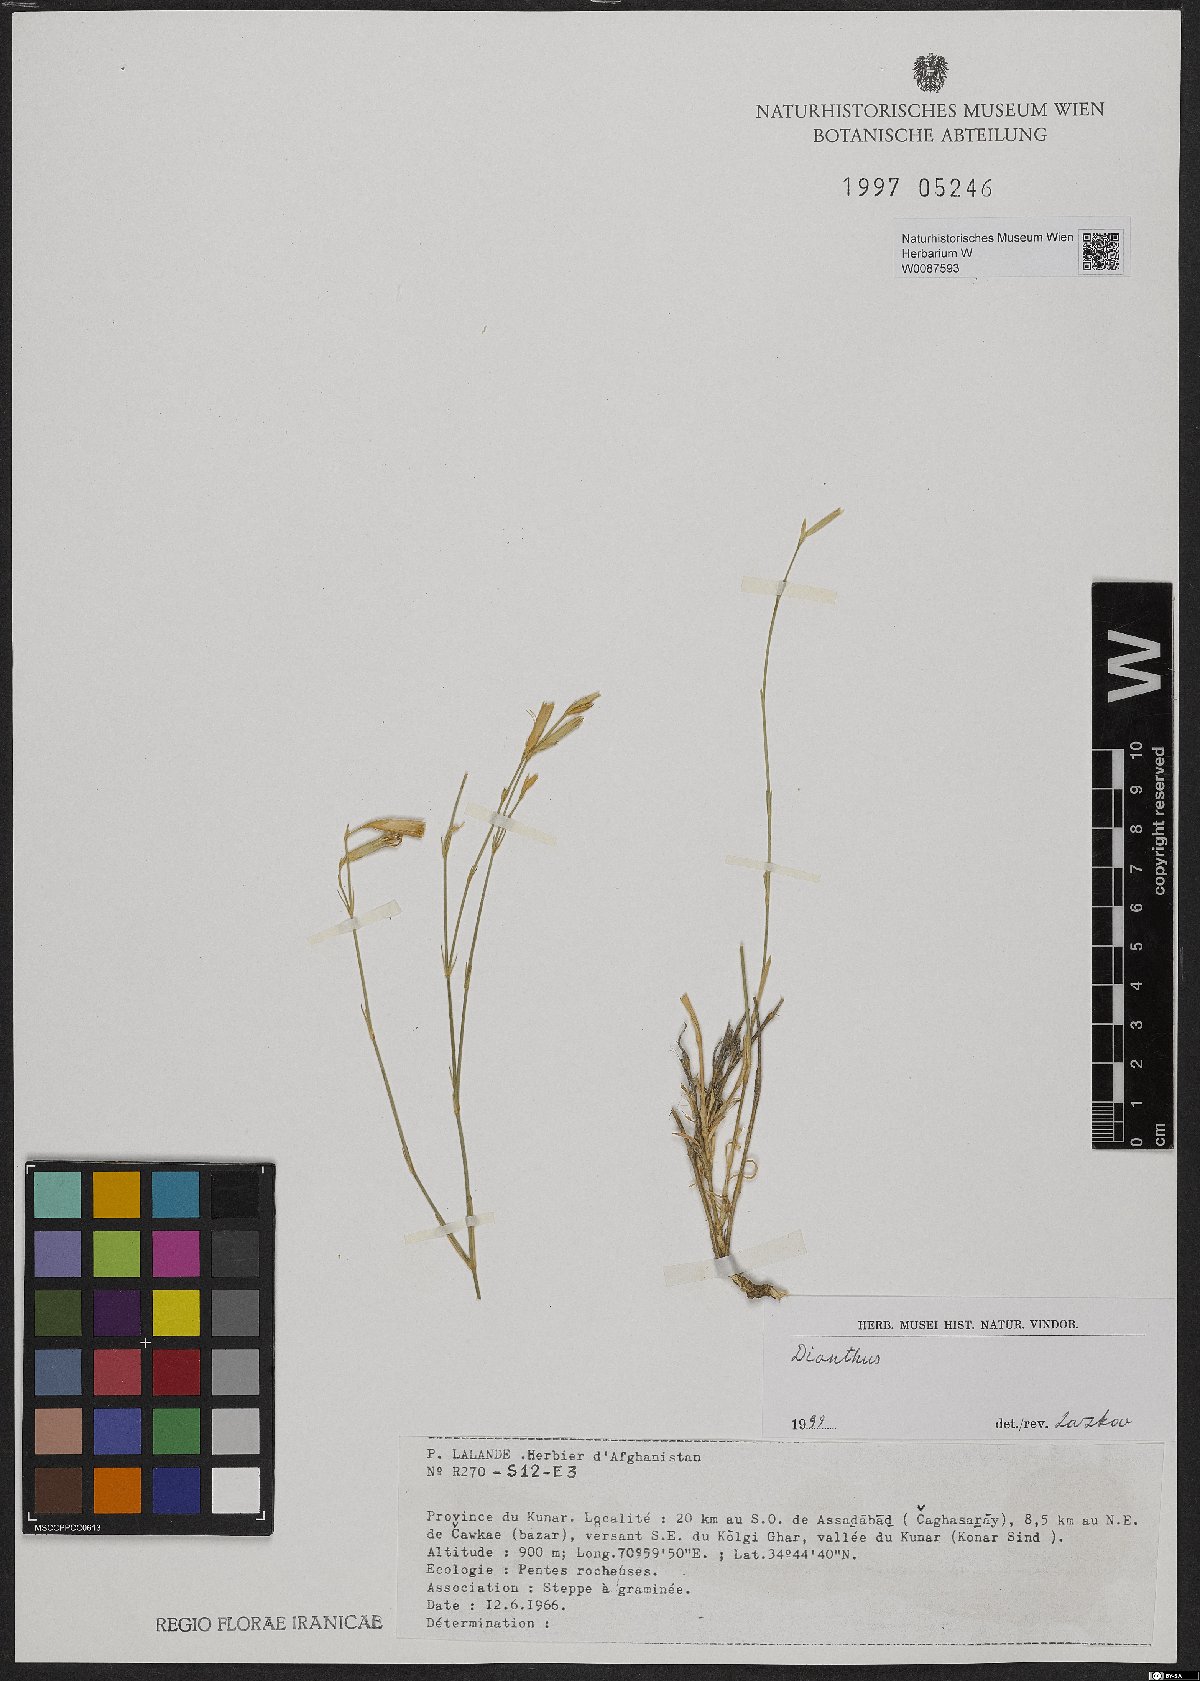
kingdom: Plantae
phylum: Tracheophyta
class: Magnoliopsida
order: Caryophyllales
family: Caryophyllaceae
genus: Dianthus
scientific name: Dianthus
